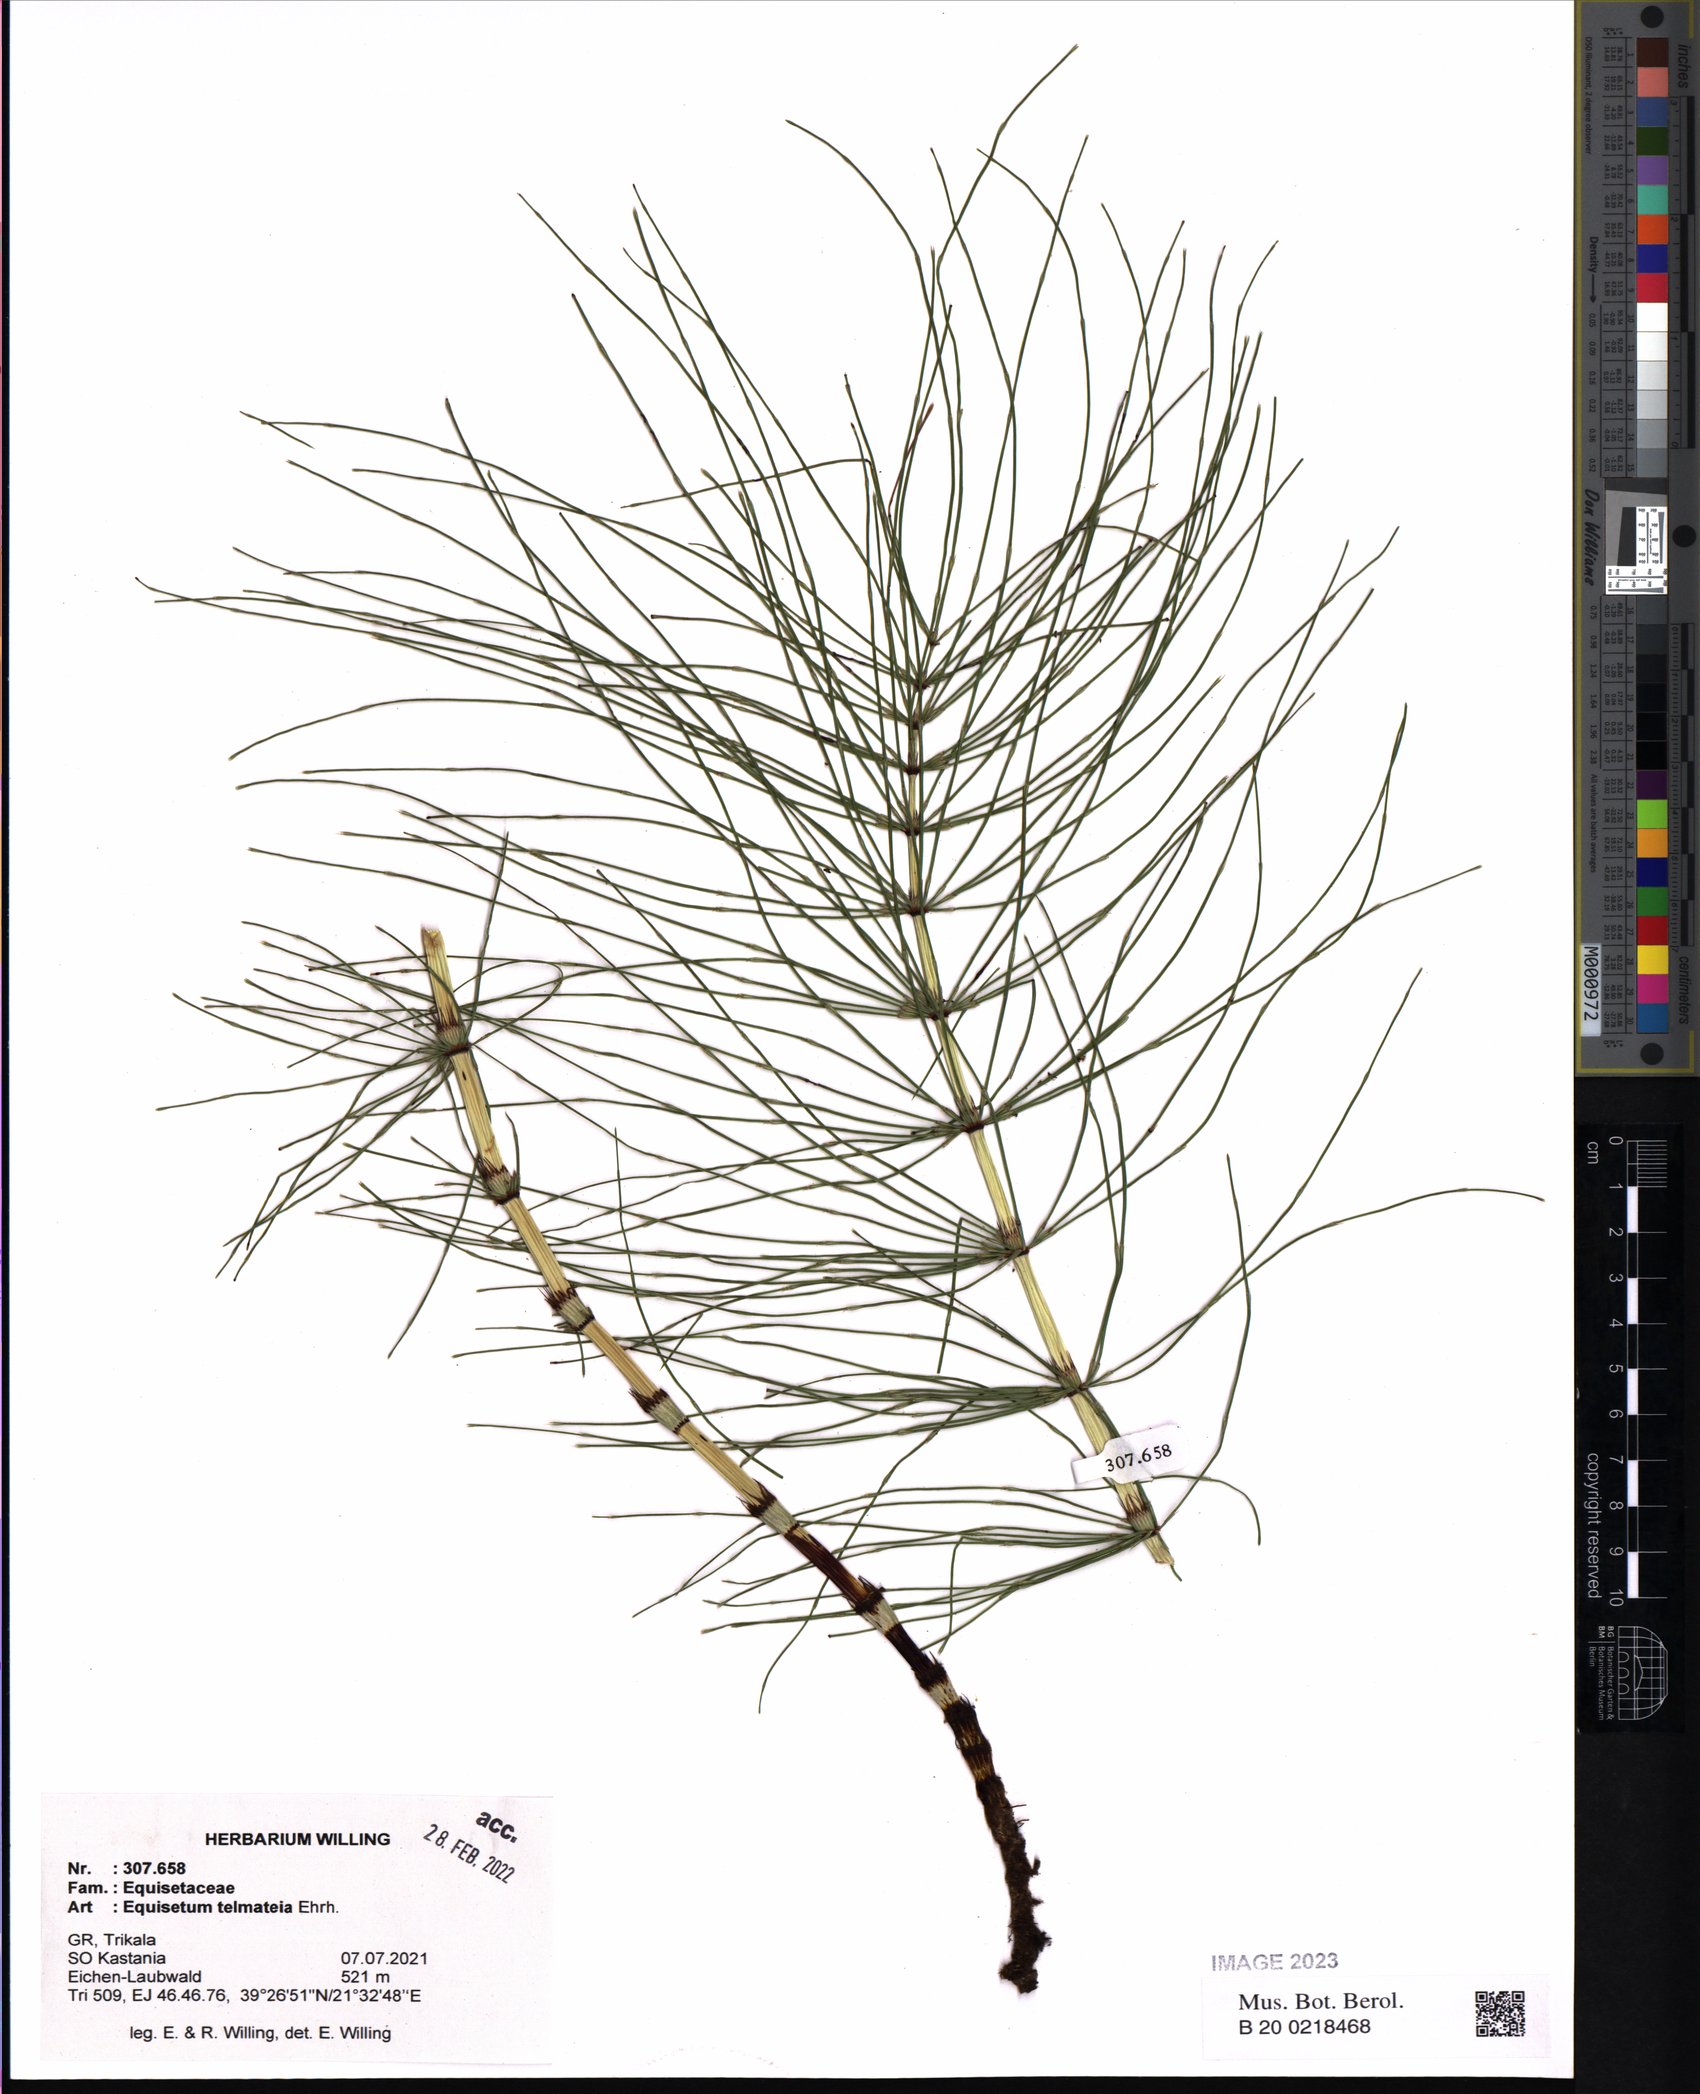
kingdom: Plantae
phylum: Tracheophyta
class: Polypodiopsida
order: Equisetales
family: Equisetaceae
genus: Equisetum
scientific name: Equisetum telmateia
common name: Great horsetail
